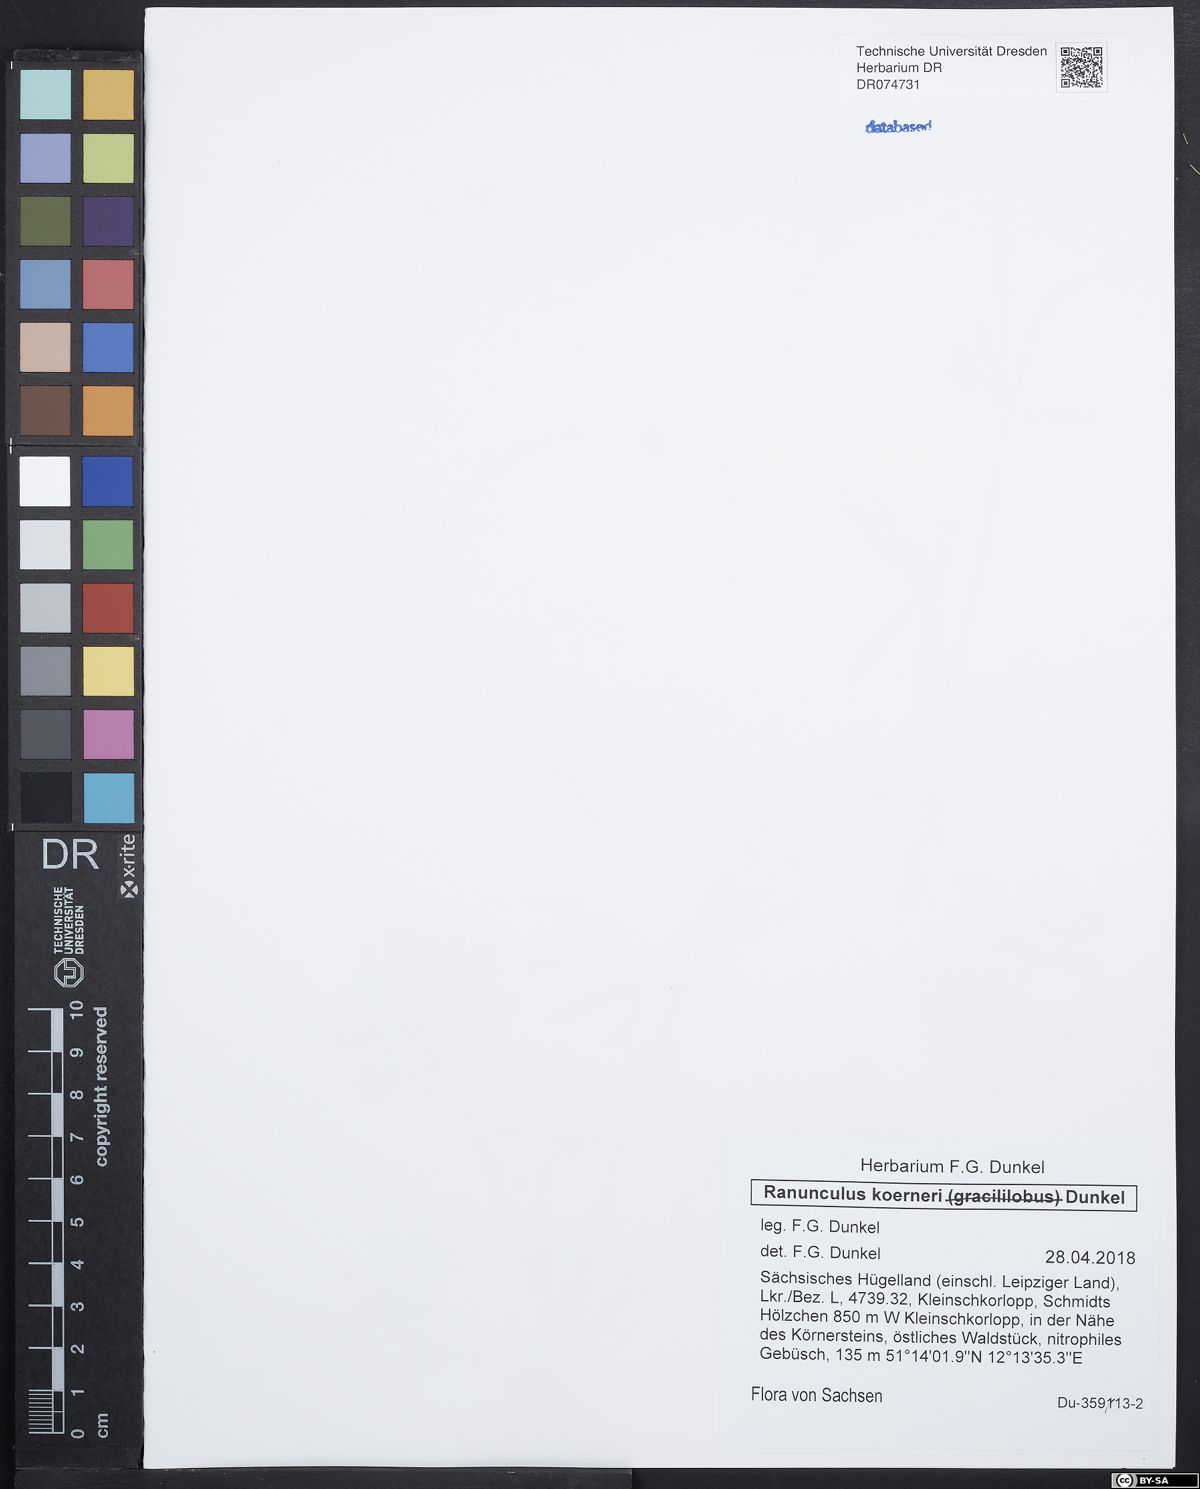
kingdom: Plantae
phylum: Tracheophyta
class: Magnoliopsida
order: Ranunculales
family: Ranunculaceae
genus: Ranunculus
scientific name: Ranunculus koerneri
